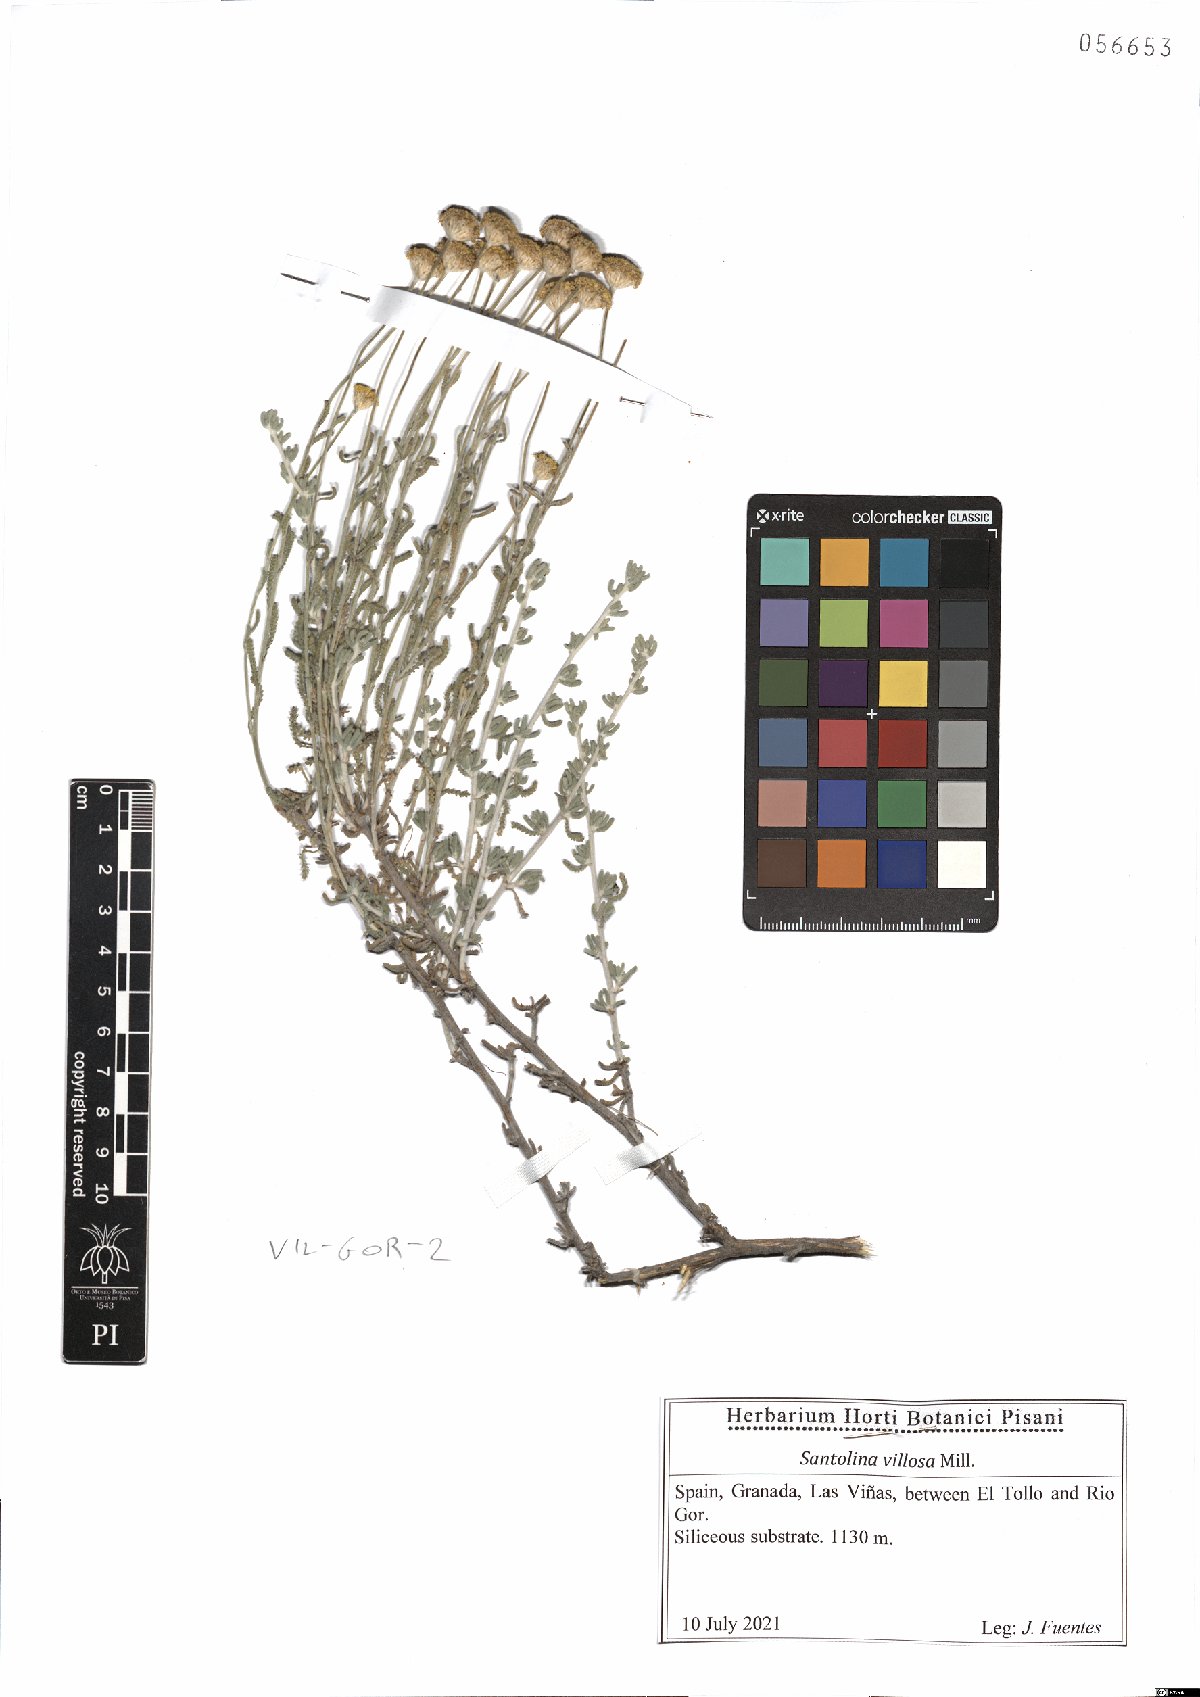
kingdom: Plantae
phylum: Tracheophyta
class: Magnoliopsida
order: Asterales
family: Asteraceae
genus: Santolina
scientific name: Santolina chamaecyparissus
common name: Lavender-cotton
